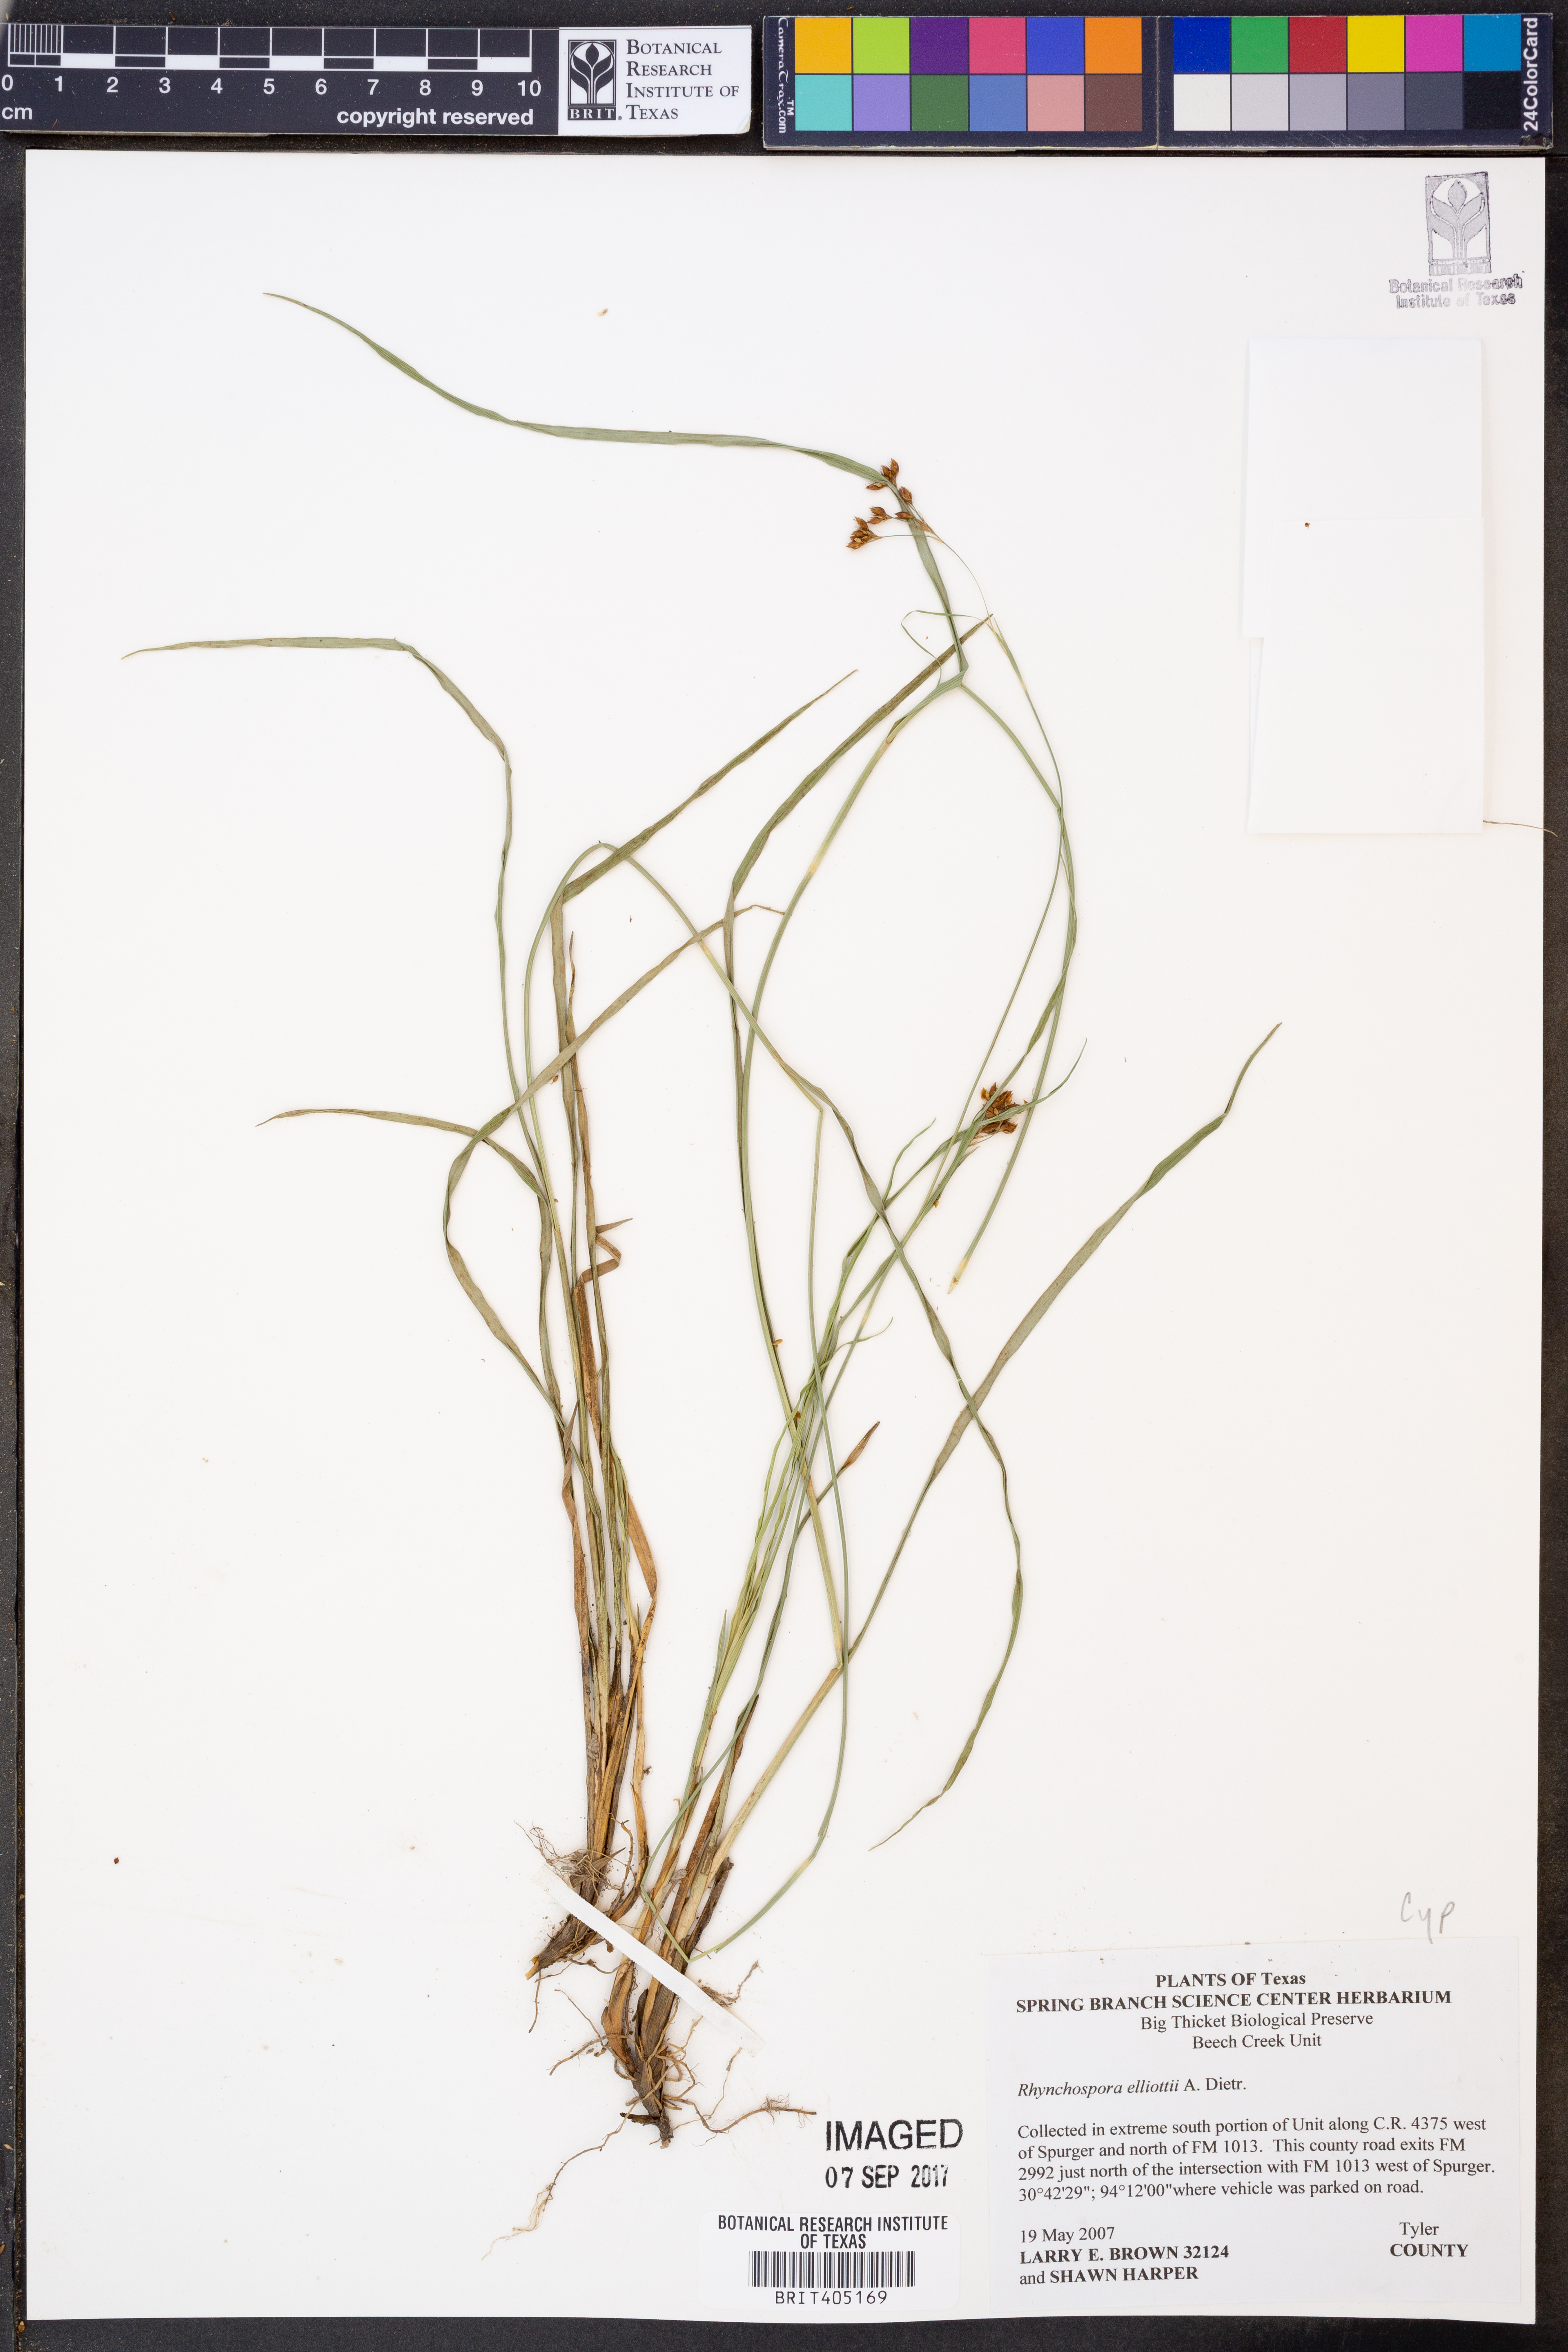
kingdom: Plantae
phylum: Tracheophyta
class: Liliopsida
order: Poales
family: Cyperaceae
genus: Rhynchospora
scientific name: Rhynchospora elliottii
